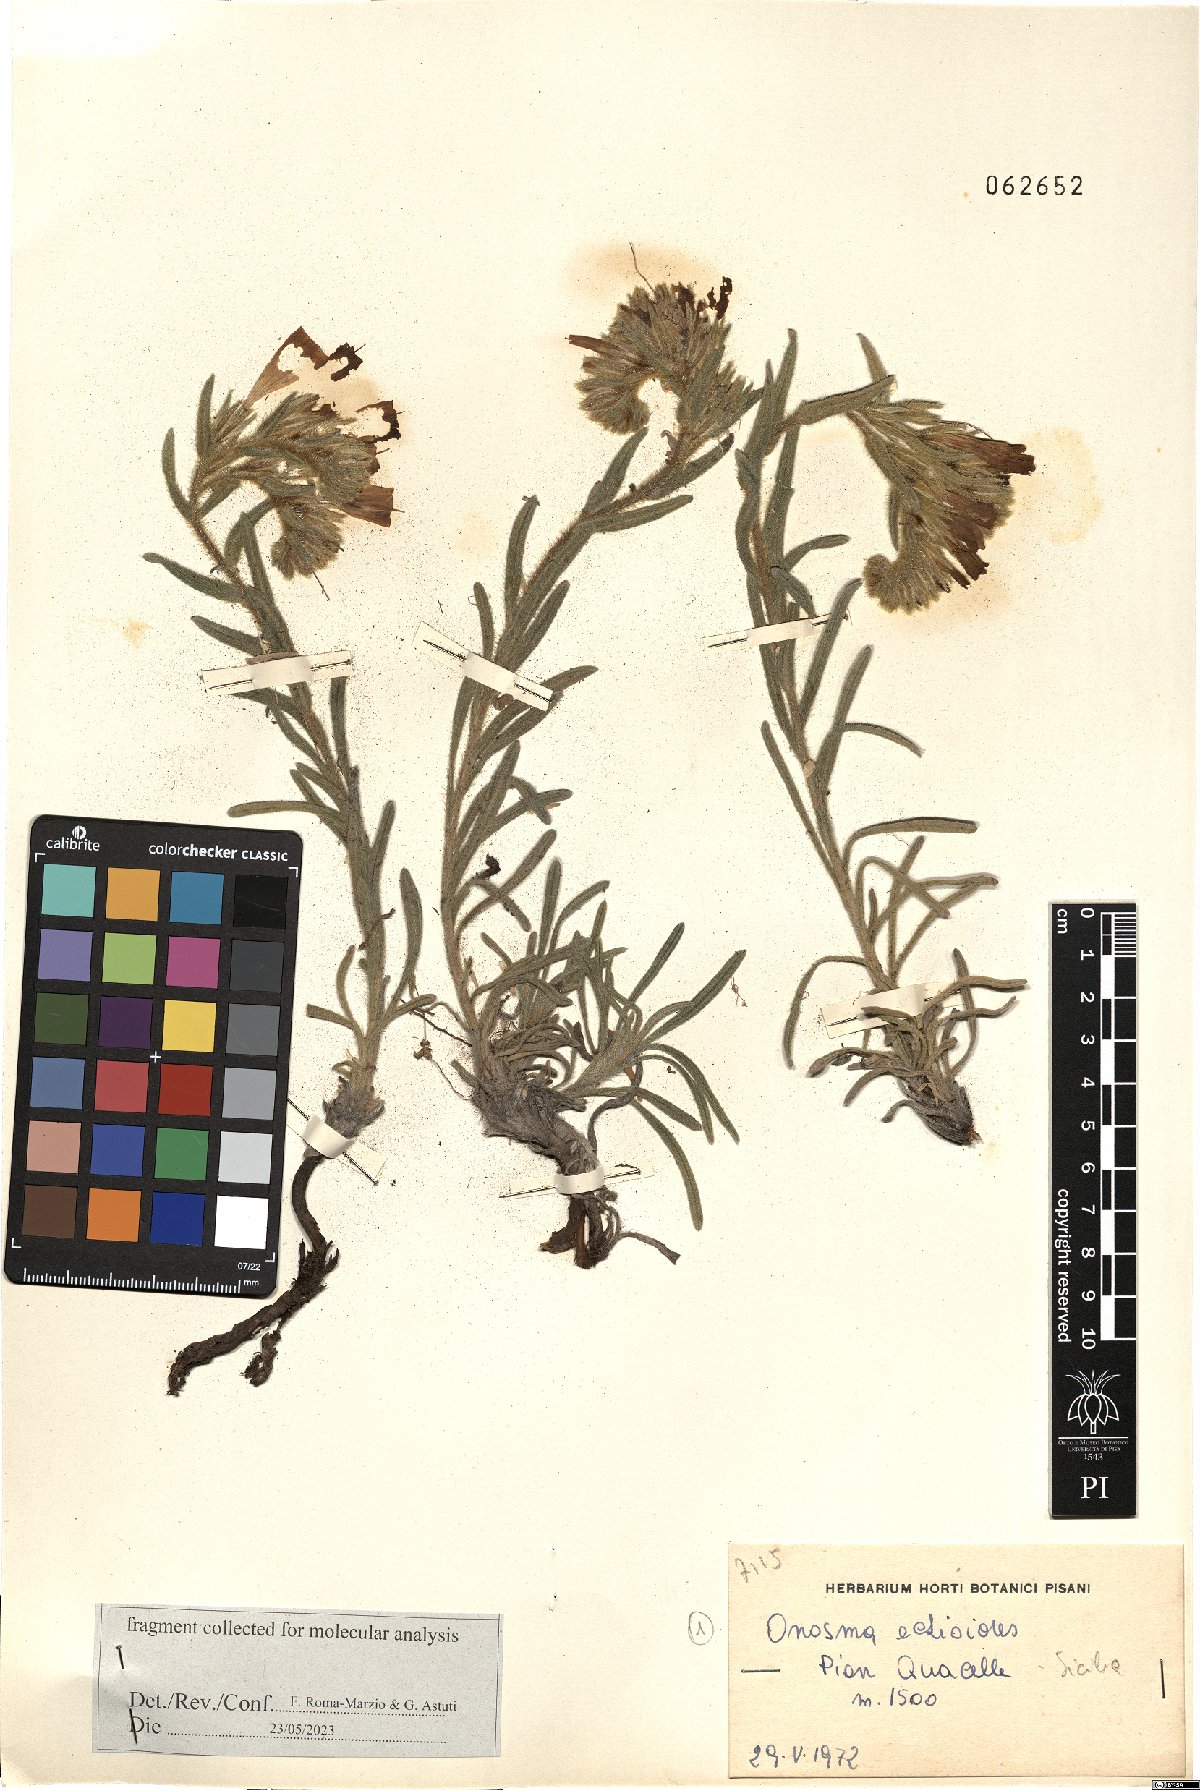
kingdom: Plantae
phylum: Tracheophyta
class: Magnoliopsida
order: Boraginales
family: Boraginaceae
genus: Onosma
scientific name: Onosma echioides
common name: Goldendrop
